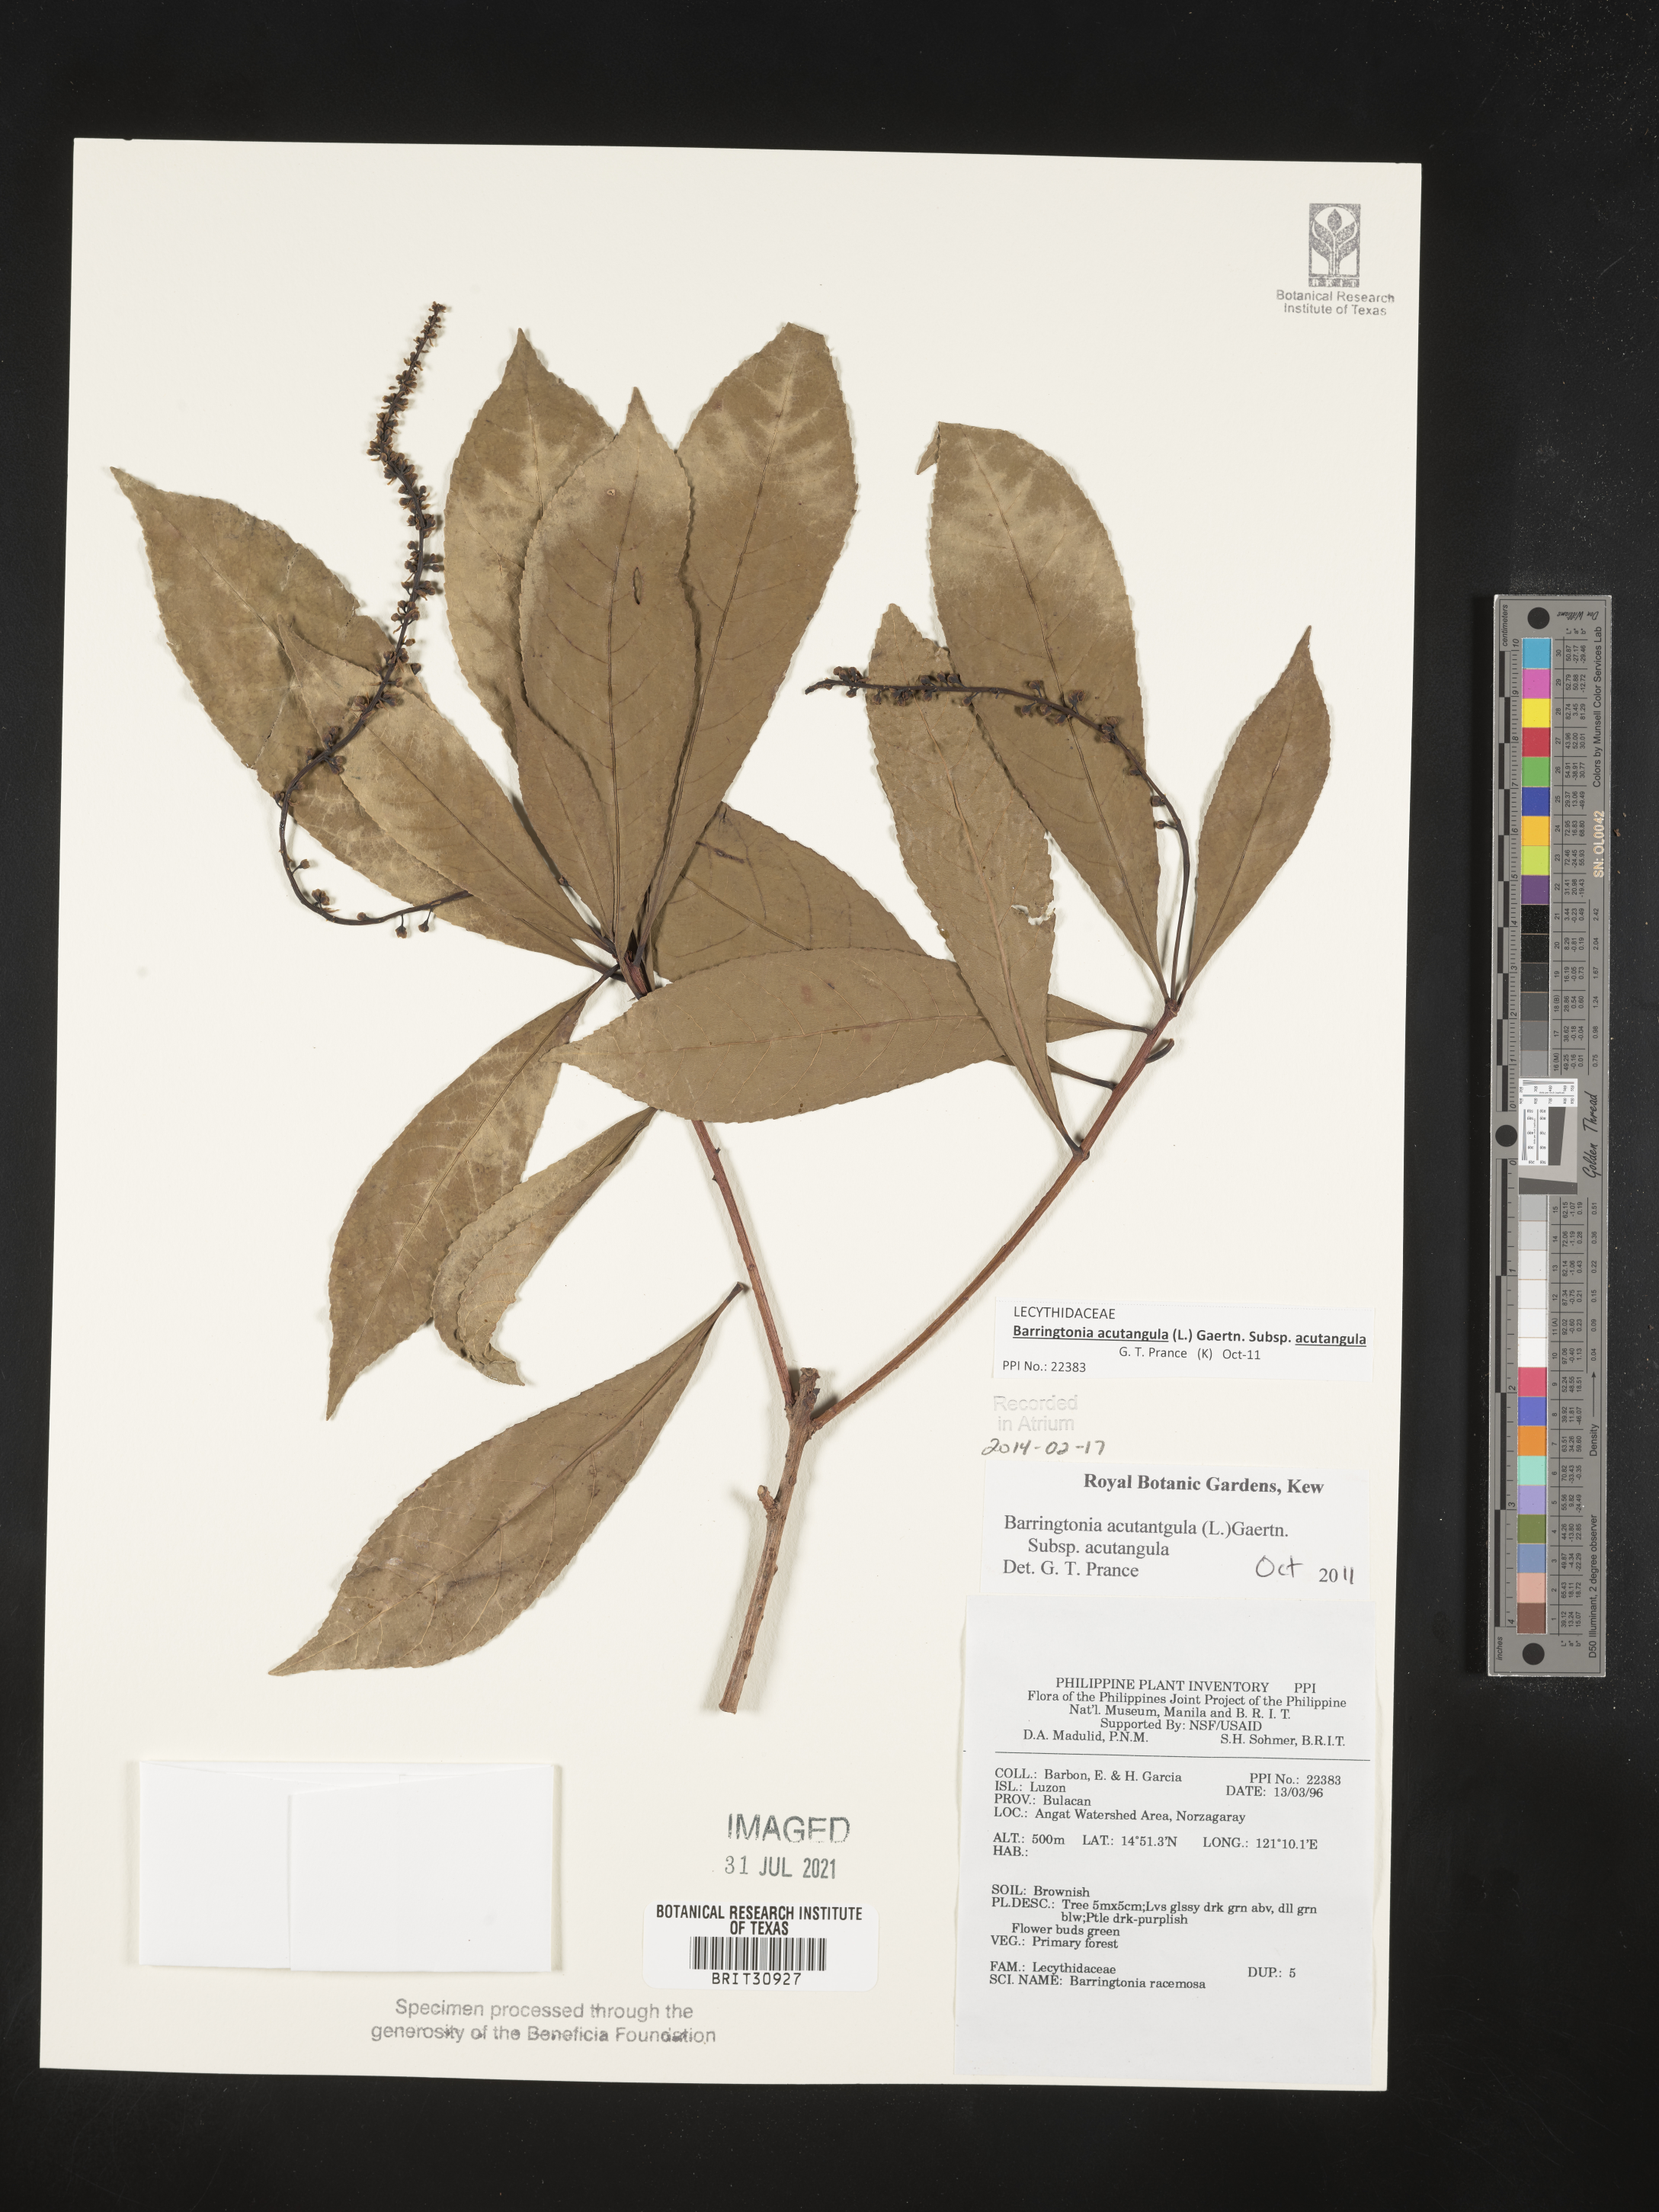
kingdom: Plantae
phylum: Tracheophyta
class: Magnoliopsida
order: Ericales
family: Lecythidaceae
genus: Barringtonia
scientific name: Barringtonia racemosa
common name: Brackwater mangrove
